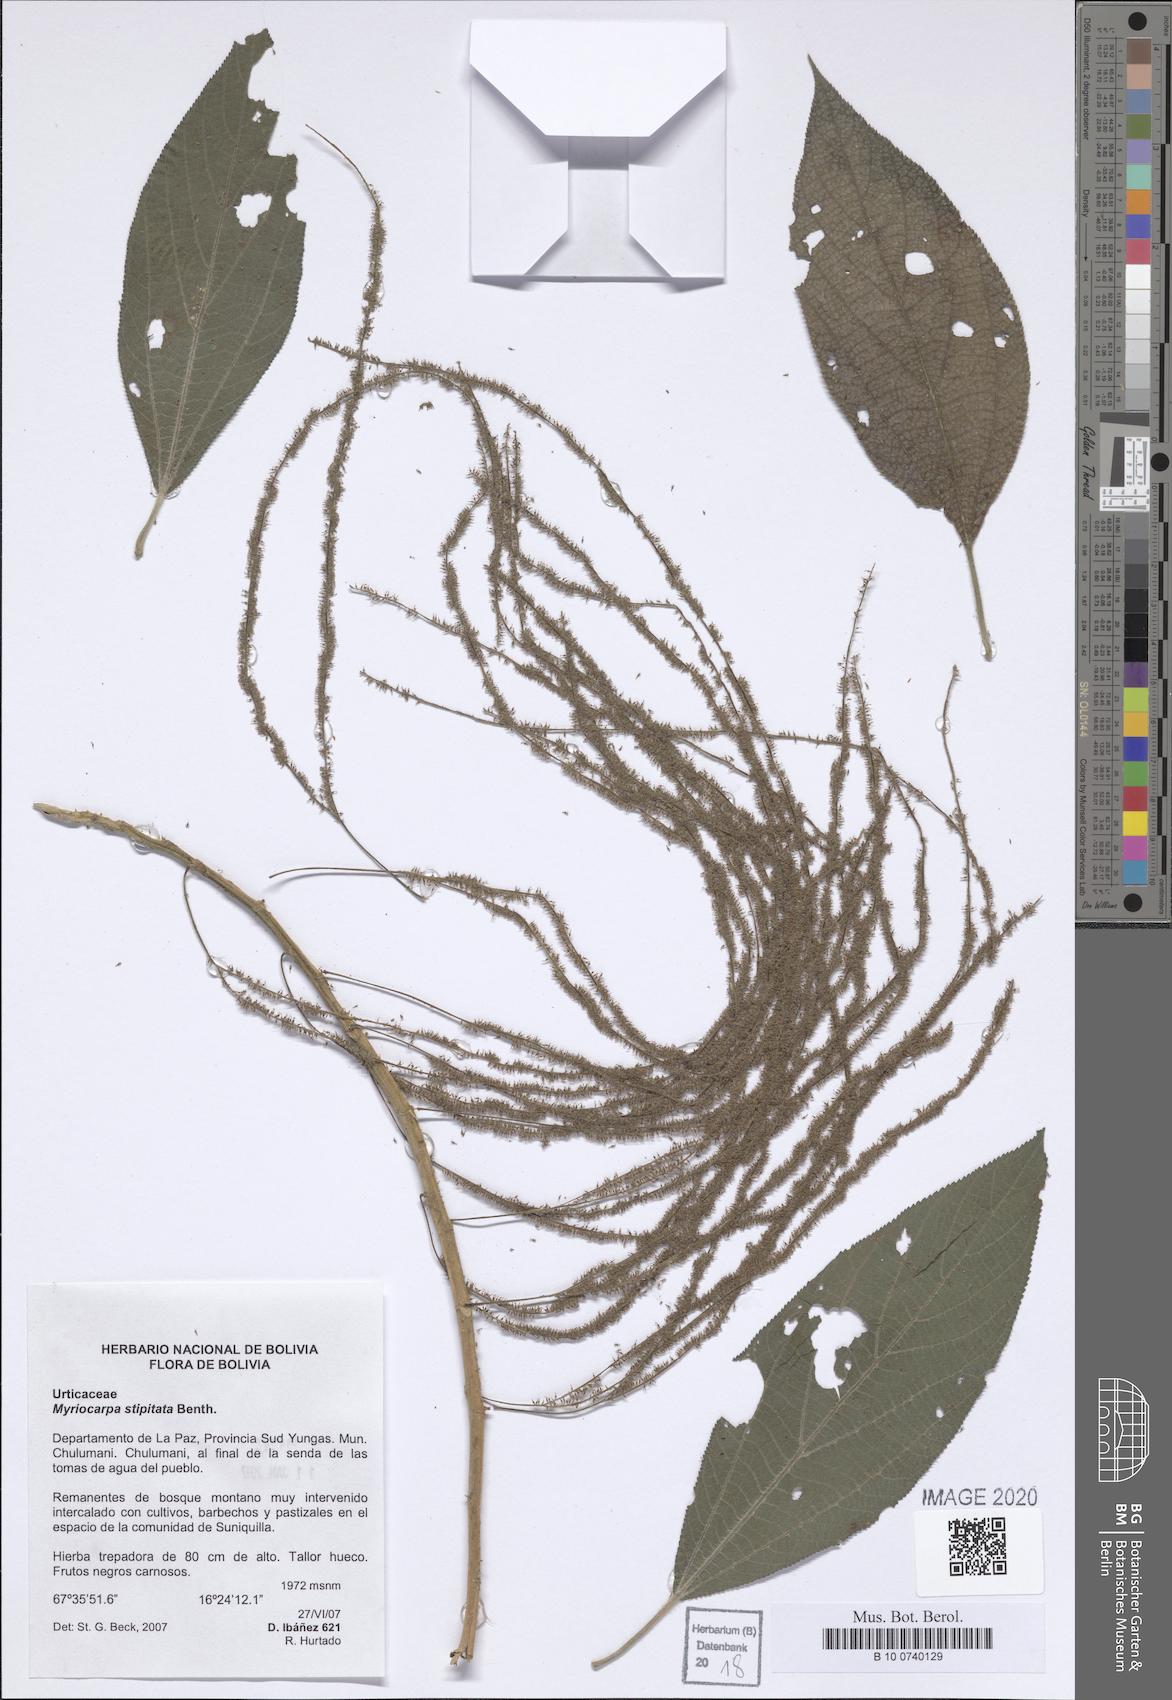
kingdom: Plantae
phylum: Tracheophyta
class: Magnoliopsida
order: Rosales
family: Urticaceae
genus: Myriocarpa
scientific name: Myriocarpa stipitata
